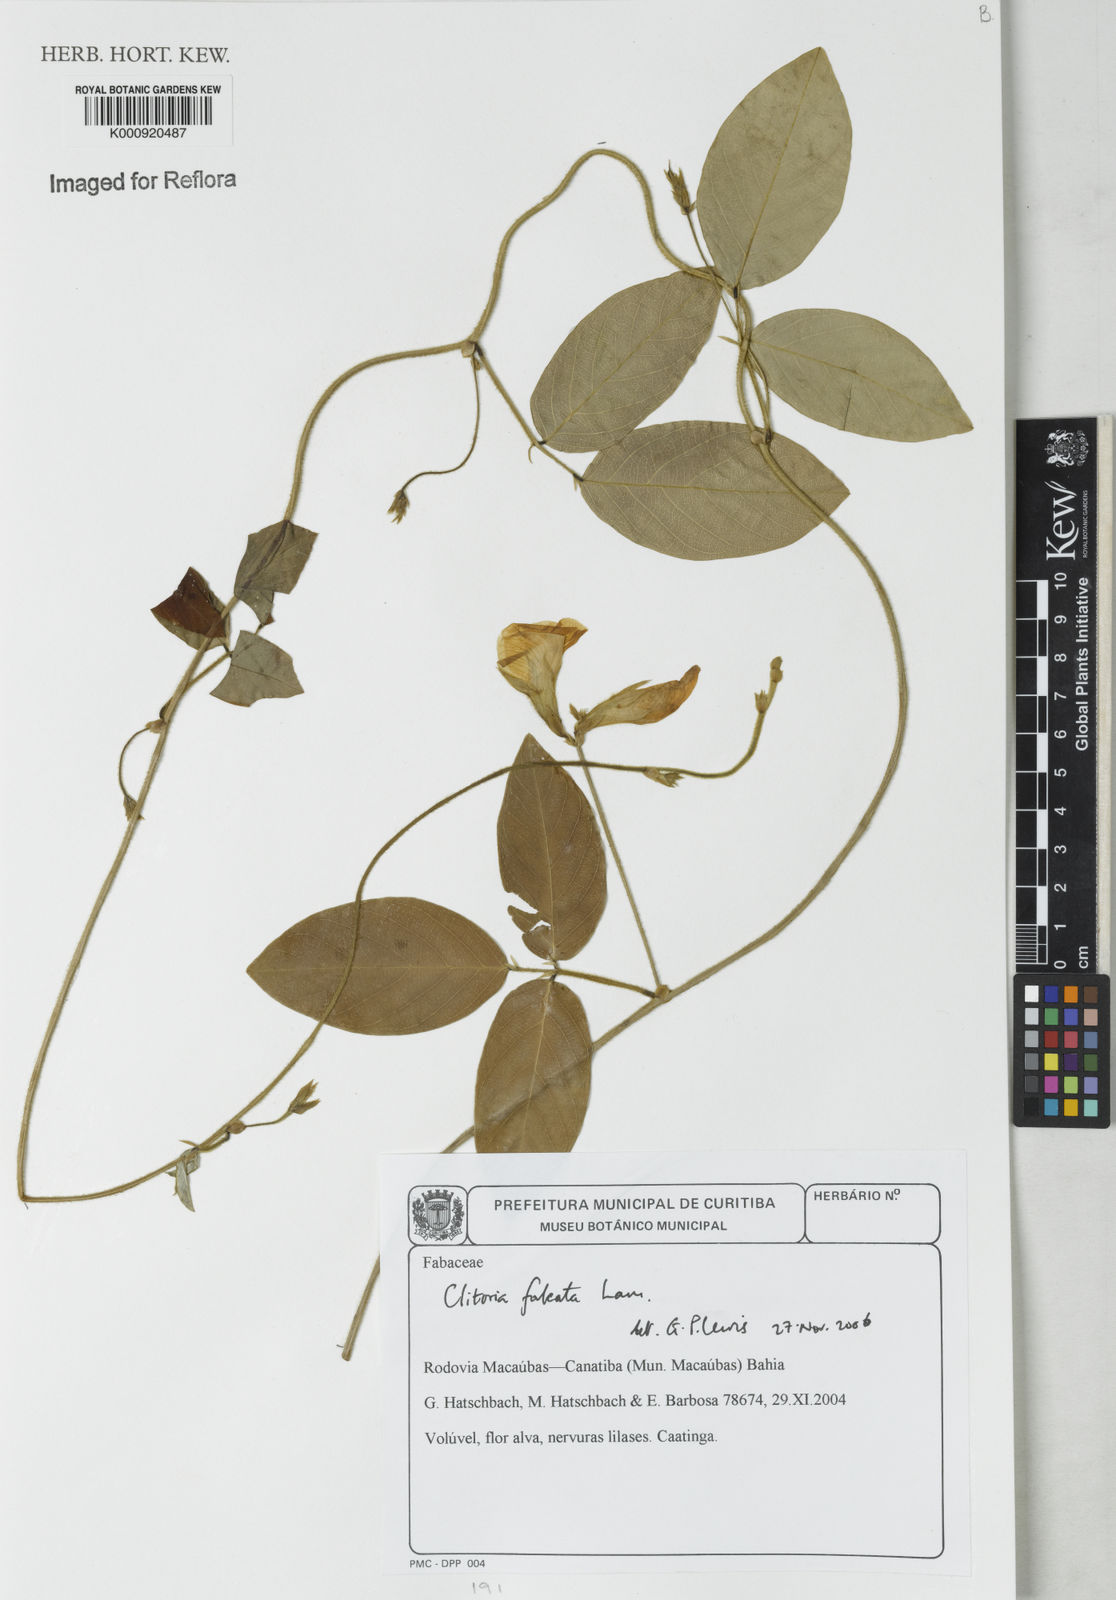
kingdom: Plantae
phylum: Tracheophyta
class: Magnoliopsida
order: Fabales
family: Fabaceae
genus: Clitoria
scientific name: Clitoria
